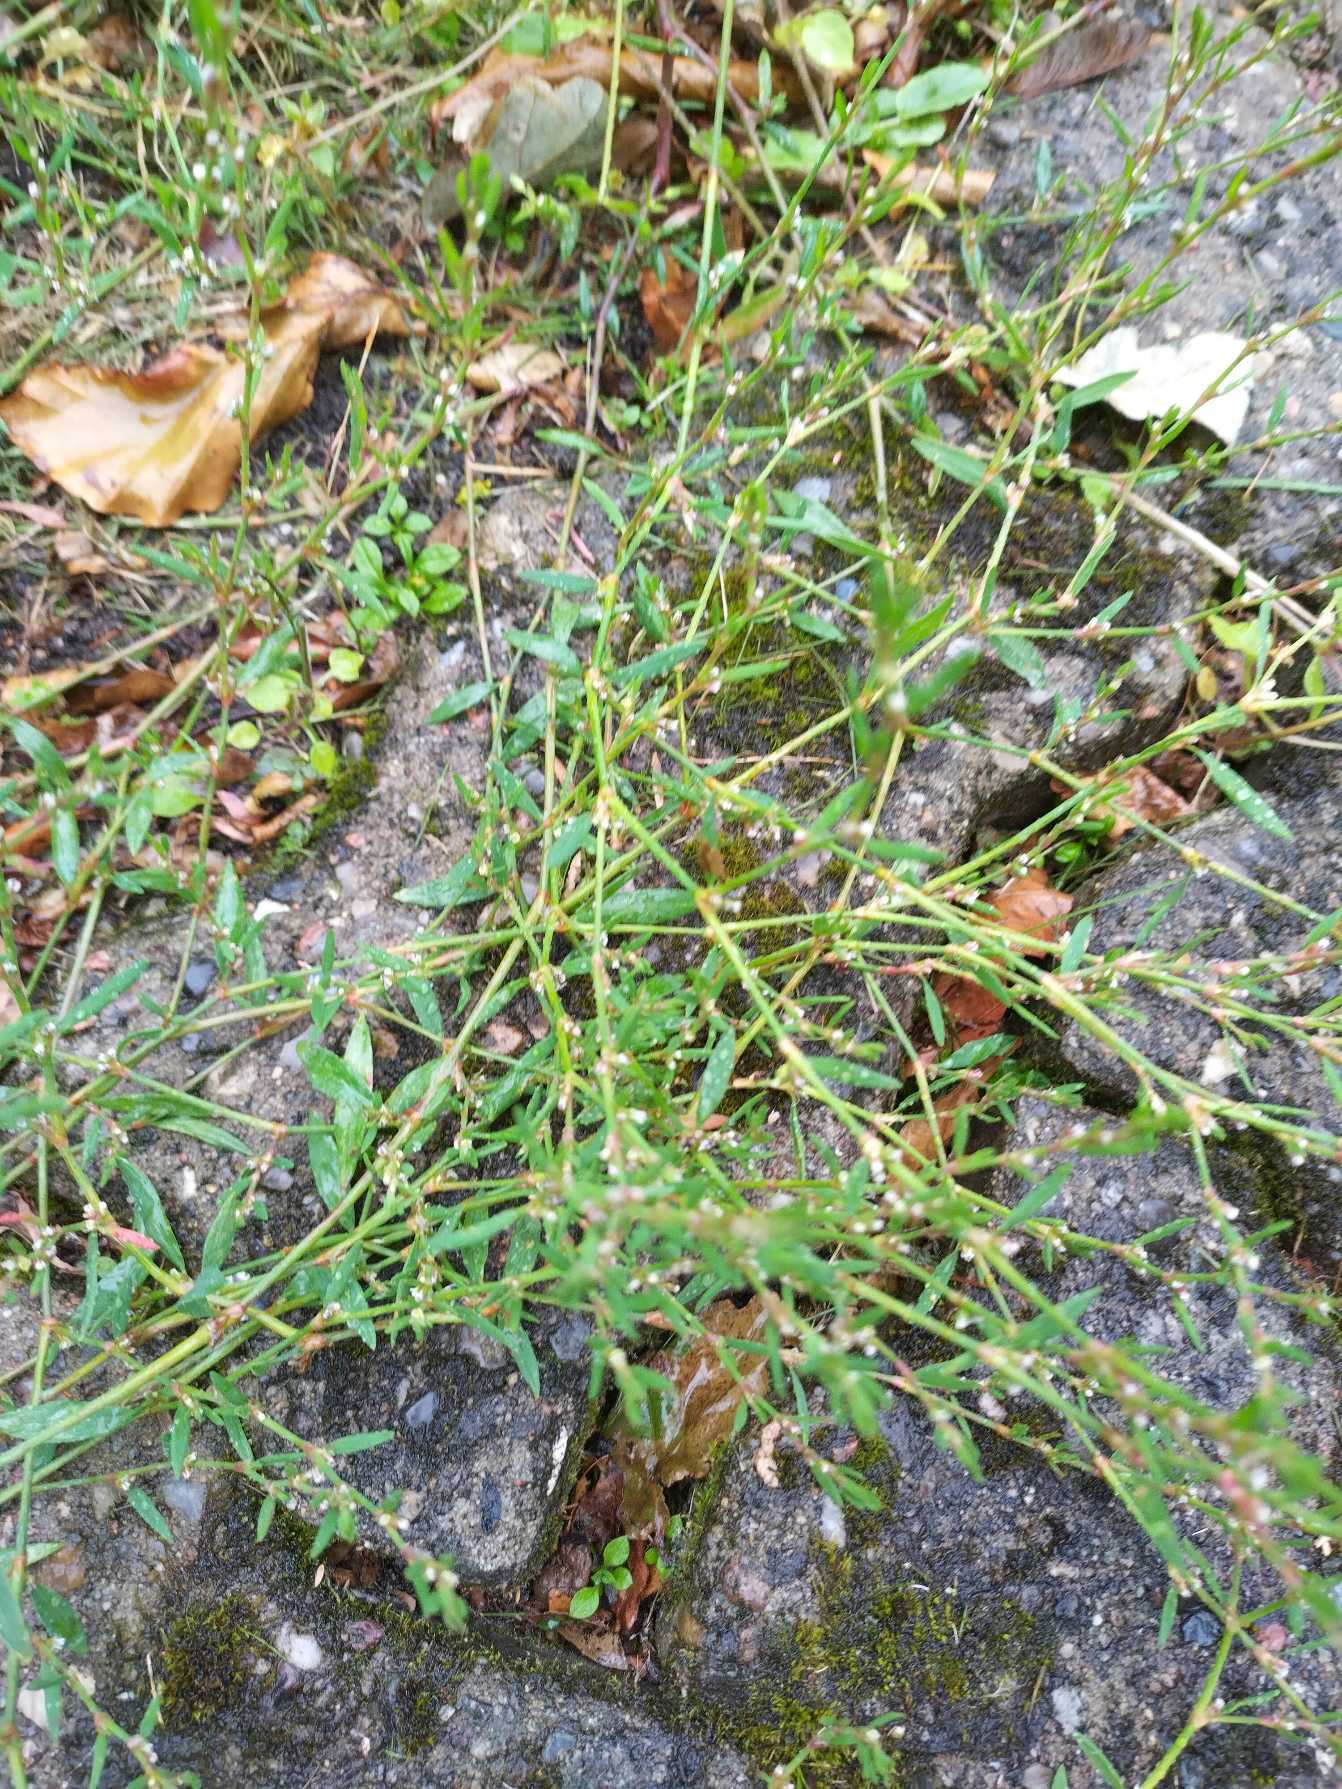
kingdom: Plantae
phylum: Tracheophyta
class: Magnoliopsida
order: Caryophyllales
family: Polygonaceae
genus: Polygonum
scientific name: Polygonum aviculare
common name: Vej-pileurt
